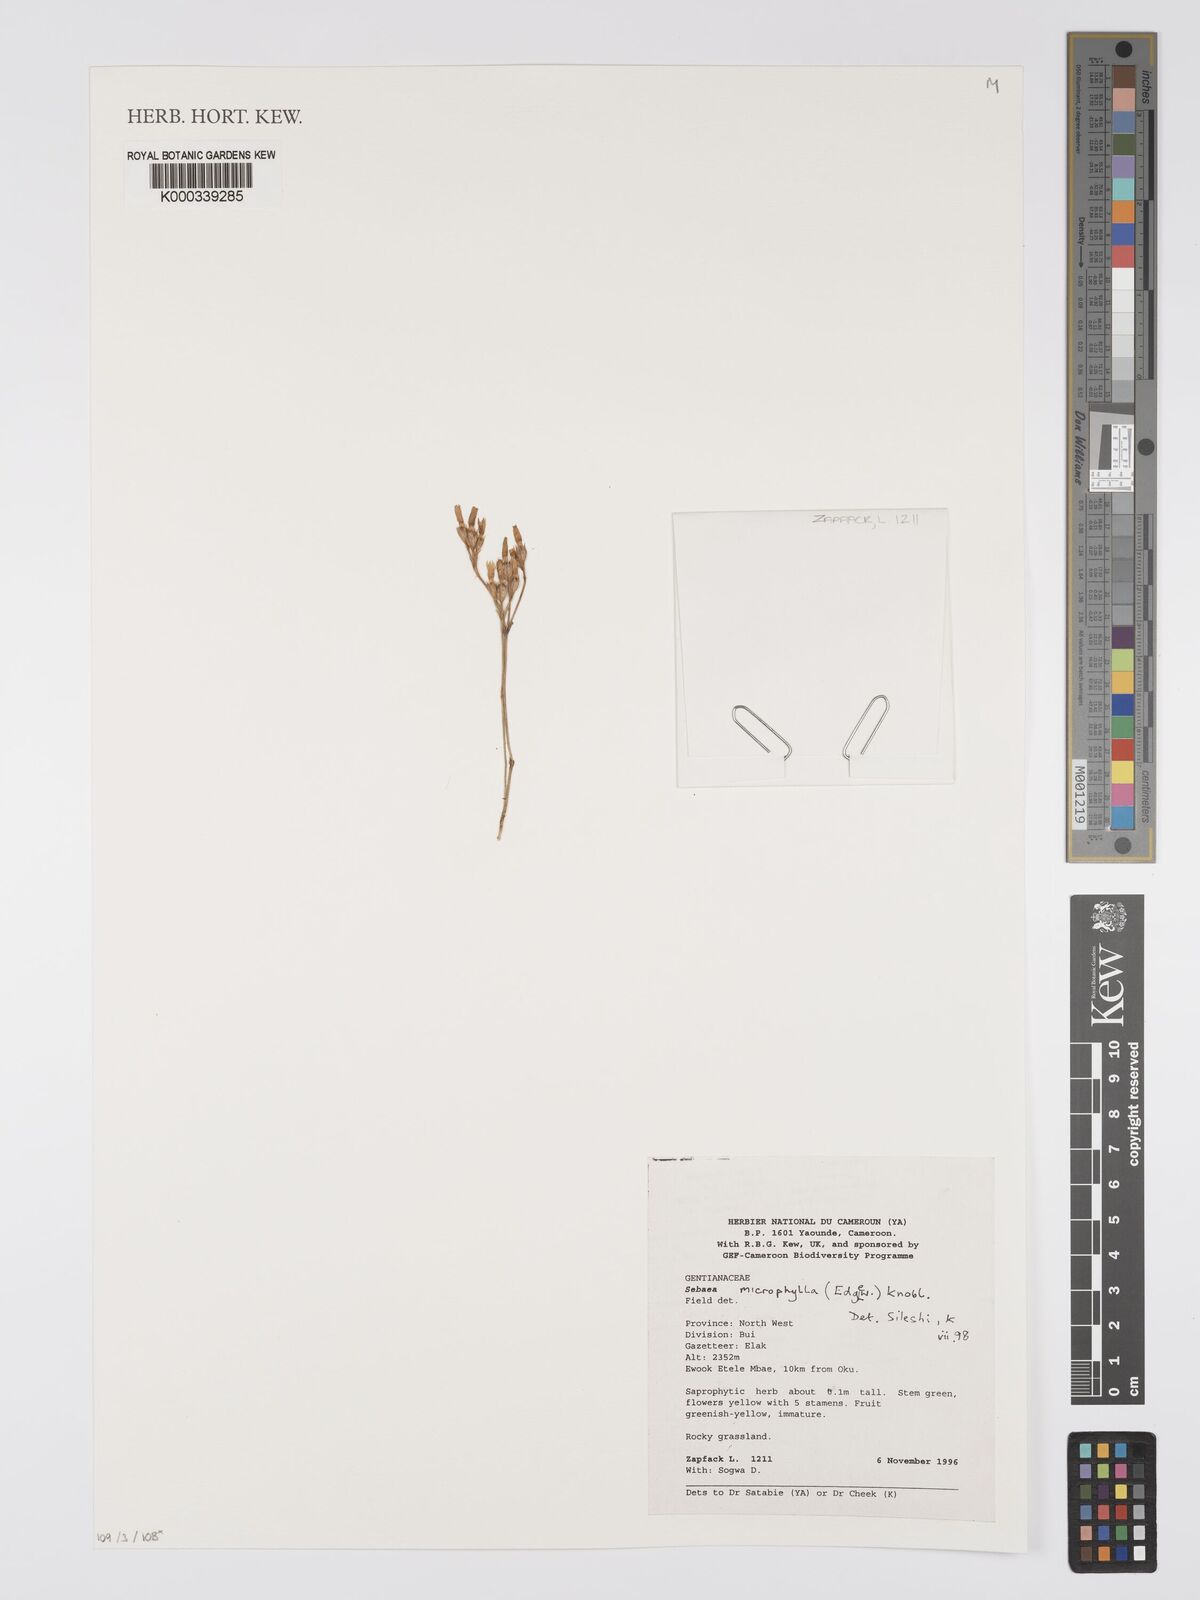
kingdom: Plantae
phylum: Tracheophyta
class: Magnoliopsida
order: Gentianales
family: Gentianaceae
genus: Sebaea
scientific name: Sebaea microphylla
